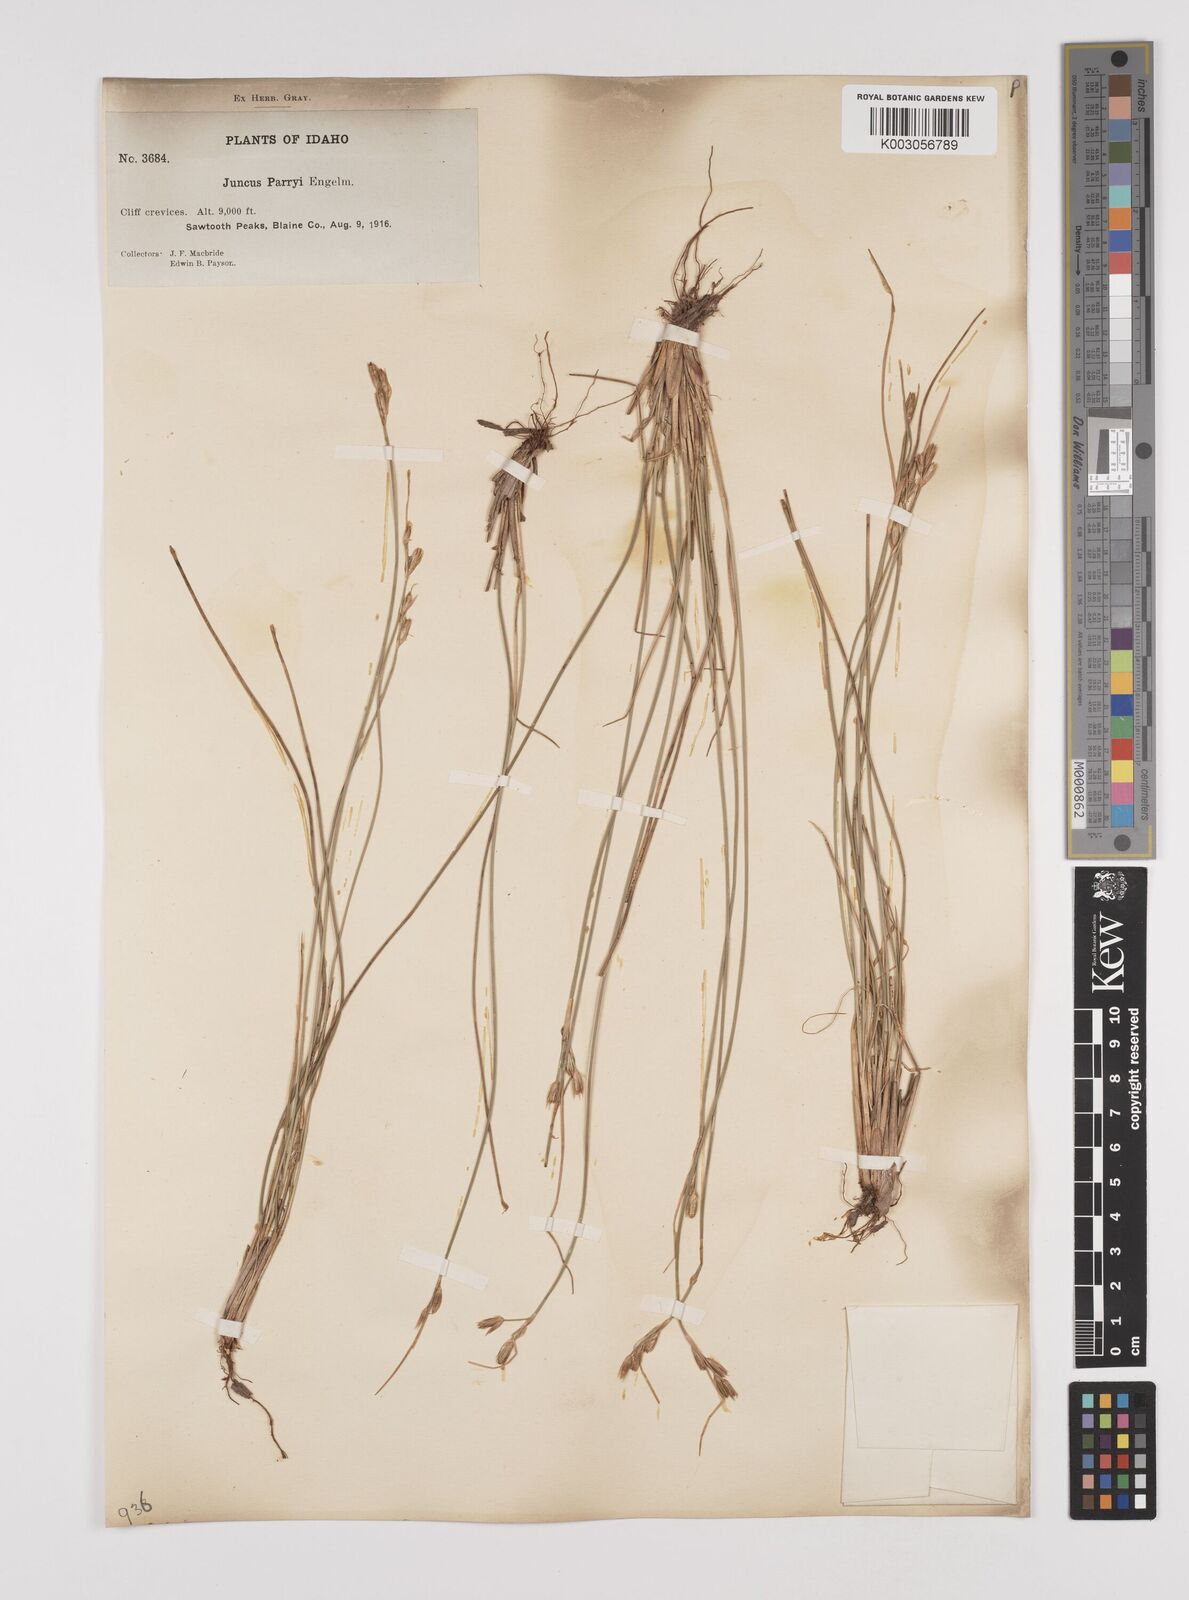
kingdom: Plantae
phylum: Tracheophyta
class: Liliopsida
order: Poales
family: Juncaceae
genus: Juncus
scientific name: Juncus parryi
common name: Parry's rush
